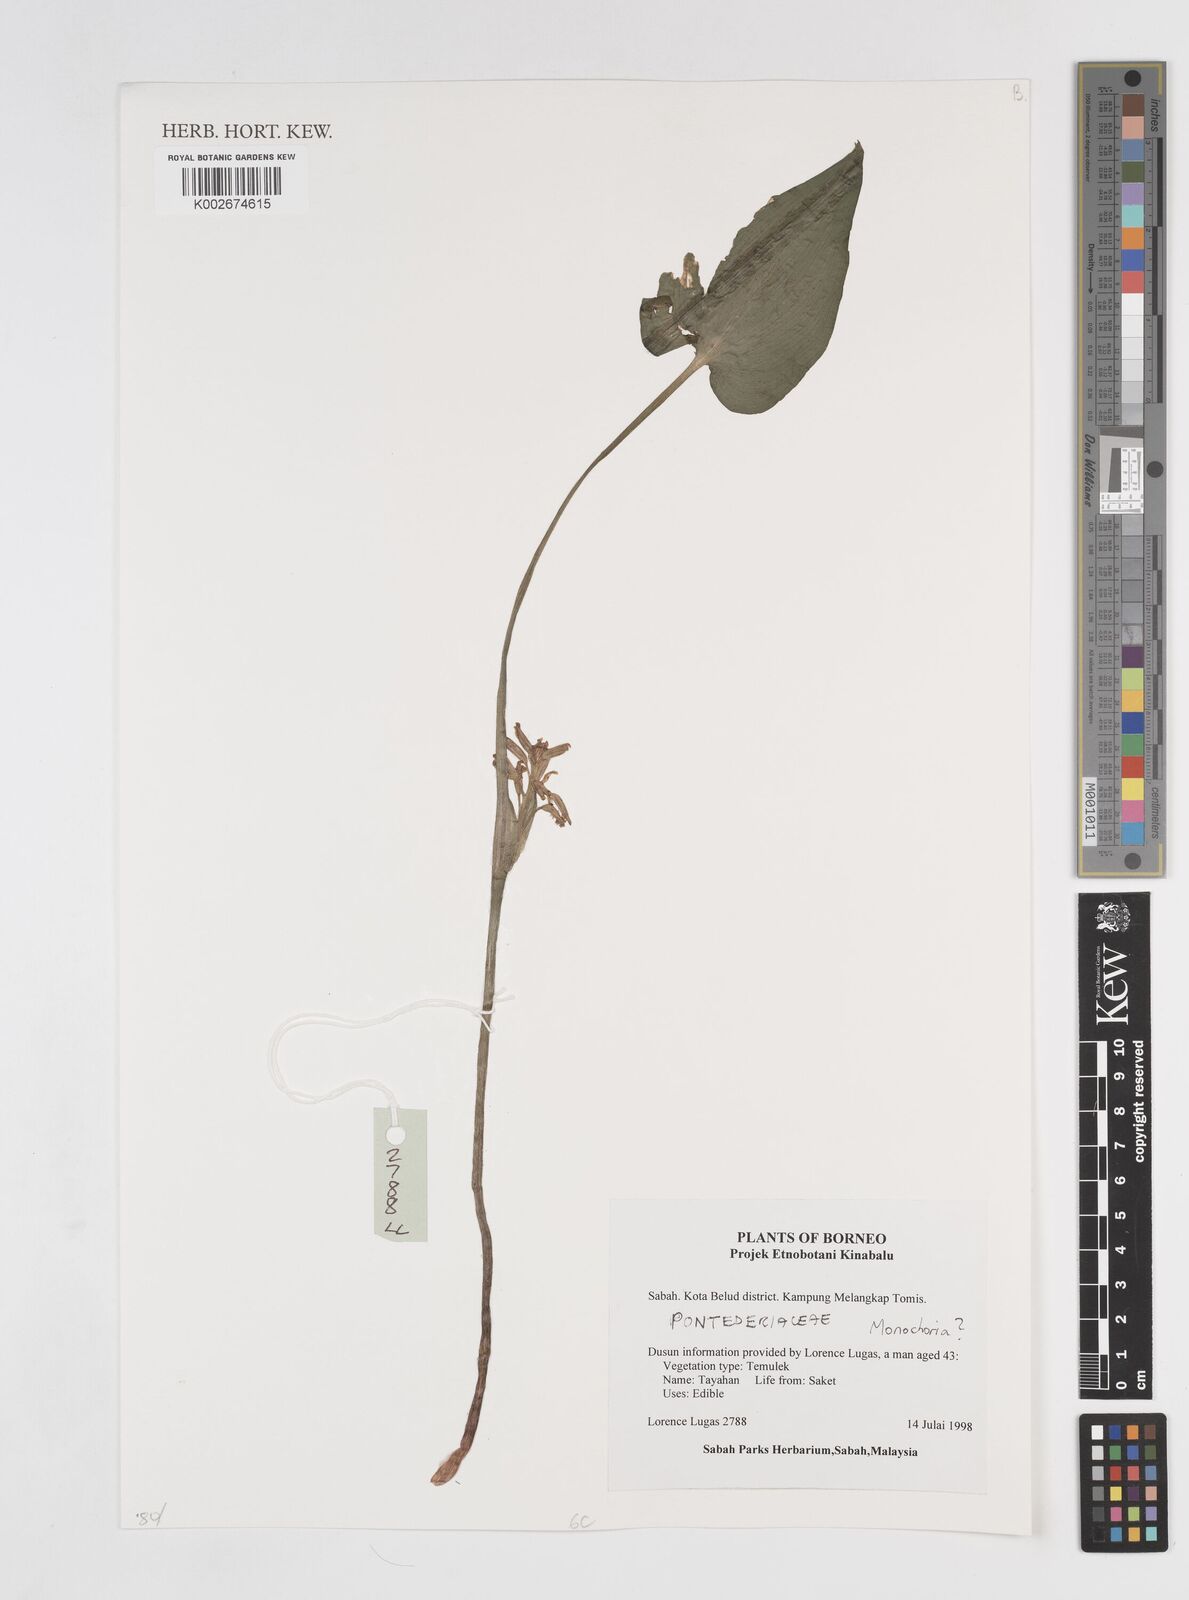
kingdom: Plantae
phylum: Tracheophyta
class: Liliopsida
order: Commelinales
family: Pontederiaceae
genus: Monochoria
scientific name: Monochoria
